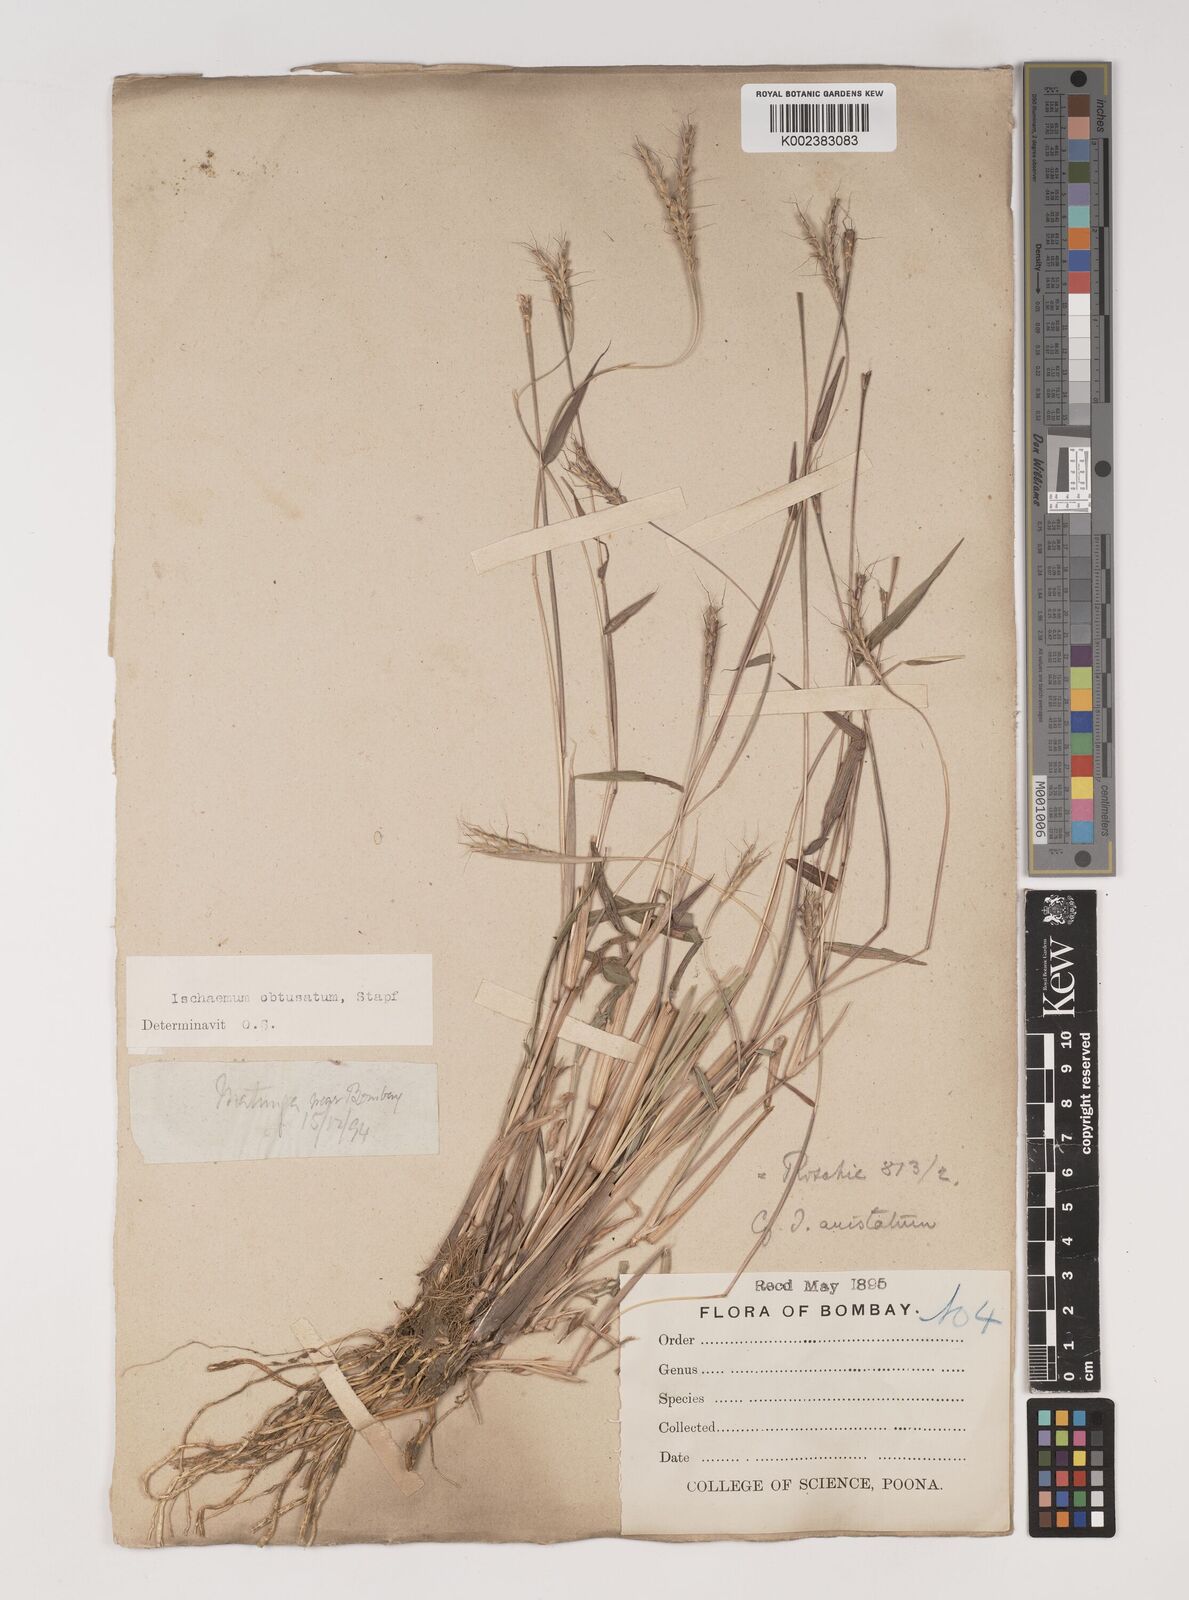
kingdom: Plantae
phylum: Tracheophyta
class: Liliopsida
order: Poales
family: Poaceae
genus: Ischaemum
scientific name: Ischaemum molle
